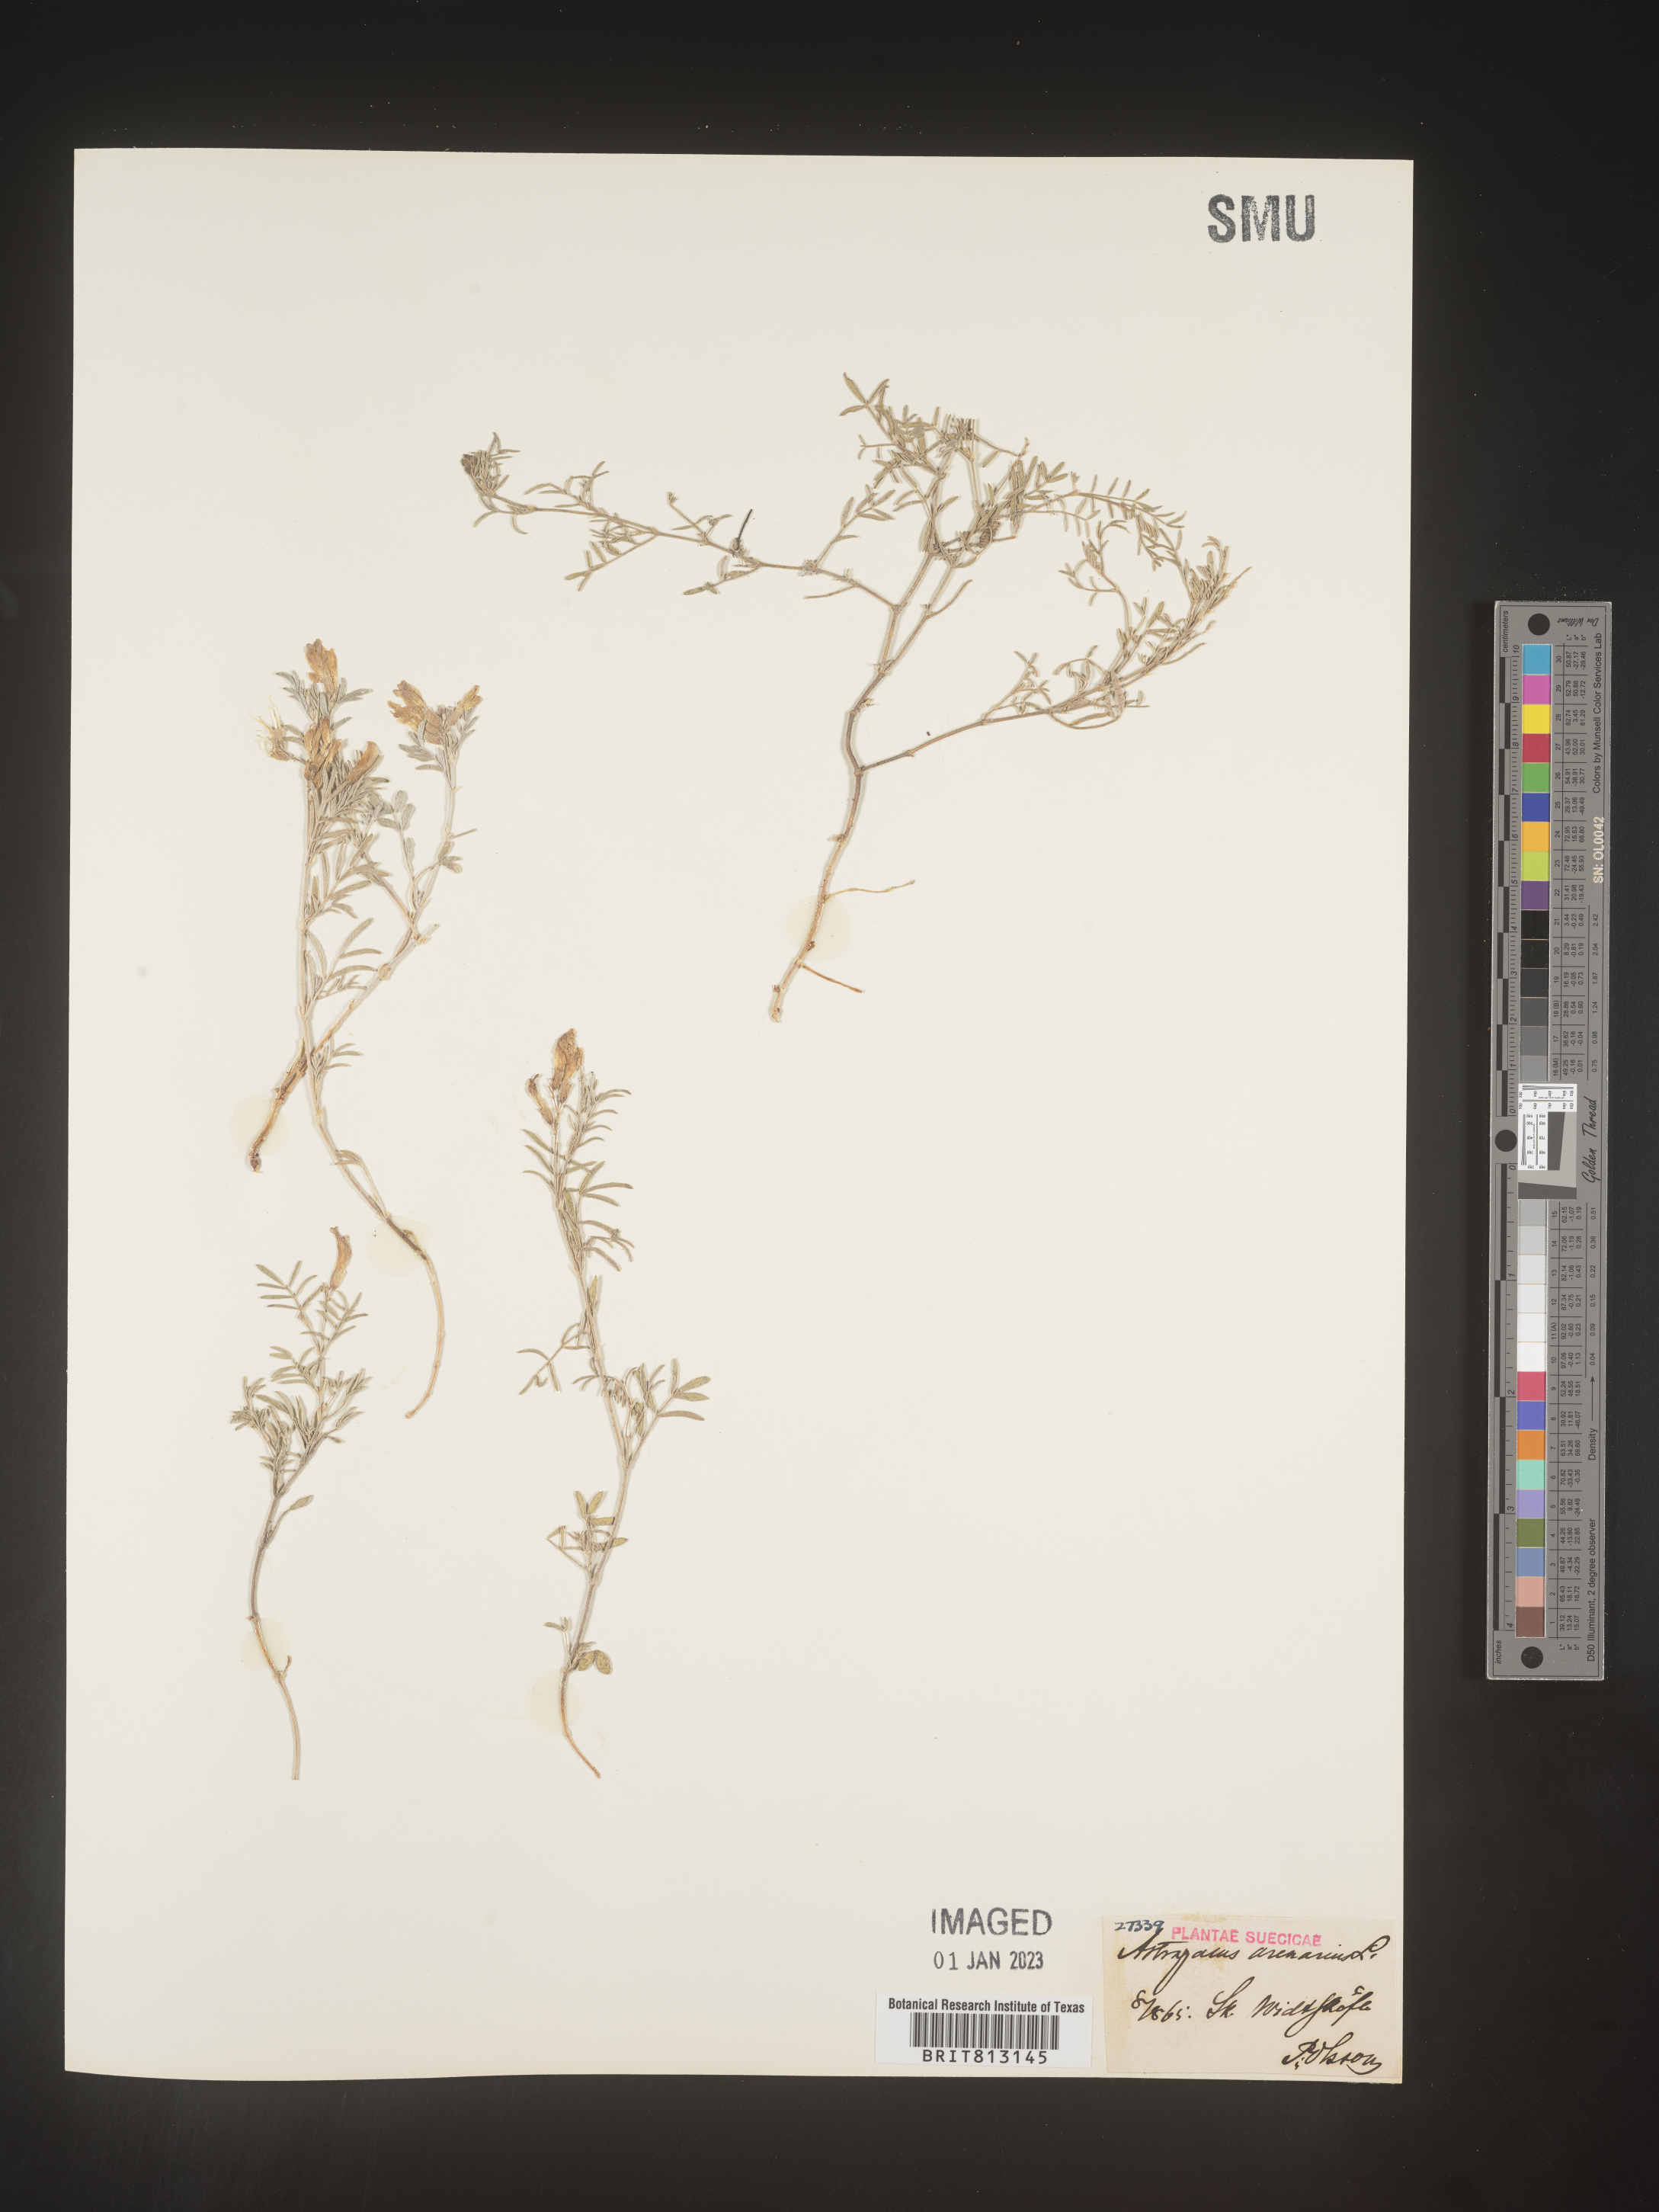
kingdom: Plantae
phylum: Tracheophyta
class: Magnoliopsida
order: Fabales
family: Fabaceae
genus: Astragalus
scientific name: Astragalus
